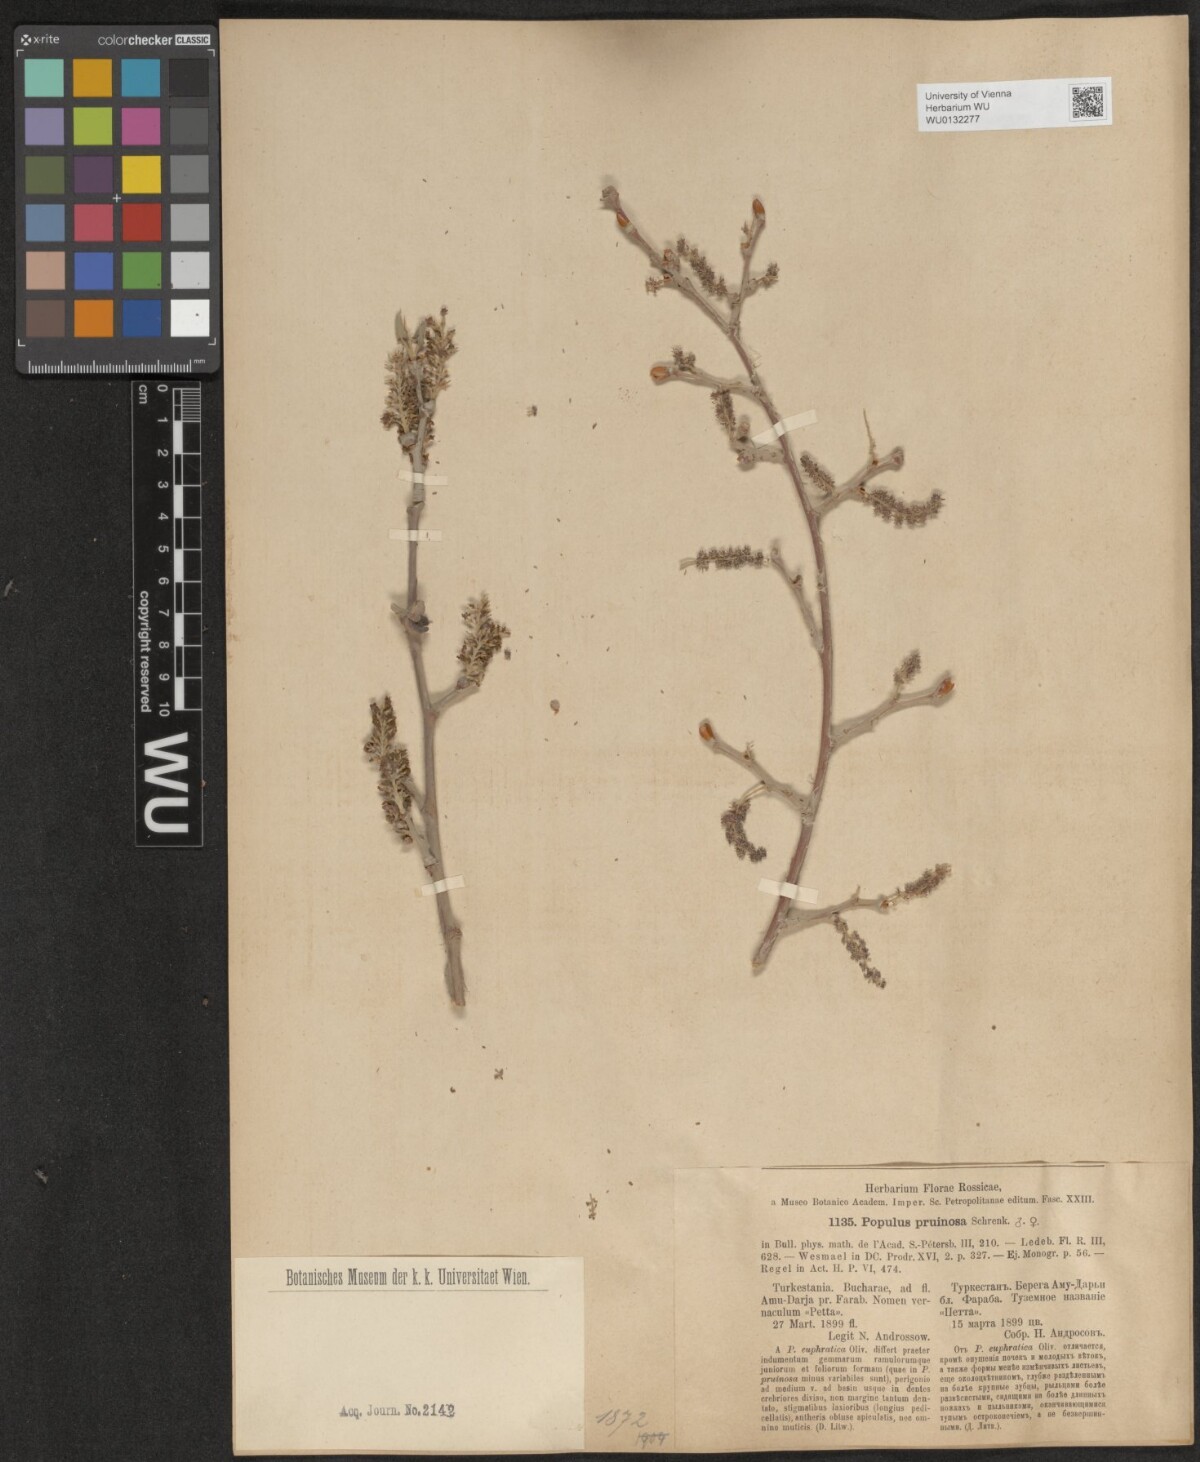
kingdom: Plantae
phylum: Tracheophyta
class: Magnoliopsida
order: Malpighiales
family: Salicaceae
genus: Populus
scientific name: Populus pruinosa
